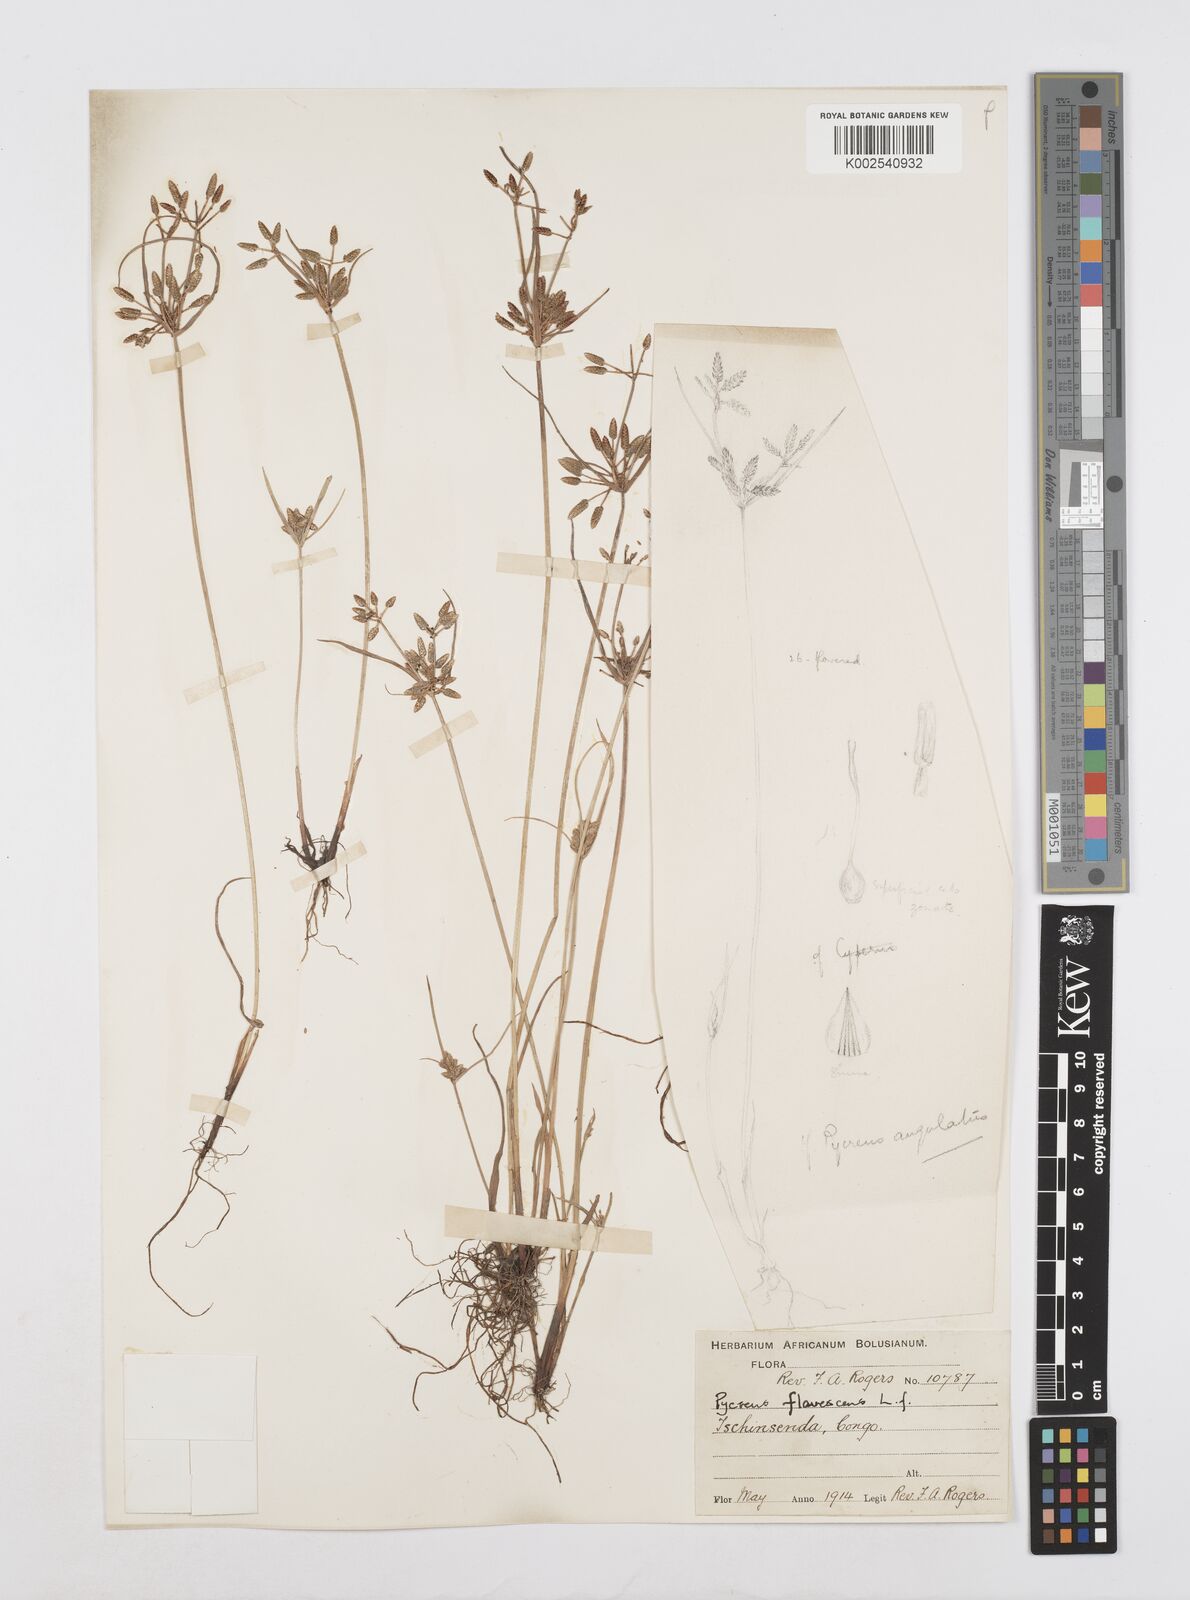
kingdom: Plantae
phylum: Tracheophyta
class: Liliopsida
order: Poales
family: Cyperaceae
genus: Cyperus
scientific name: Cyperus flavescens
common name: Yellow galingale
